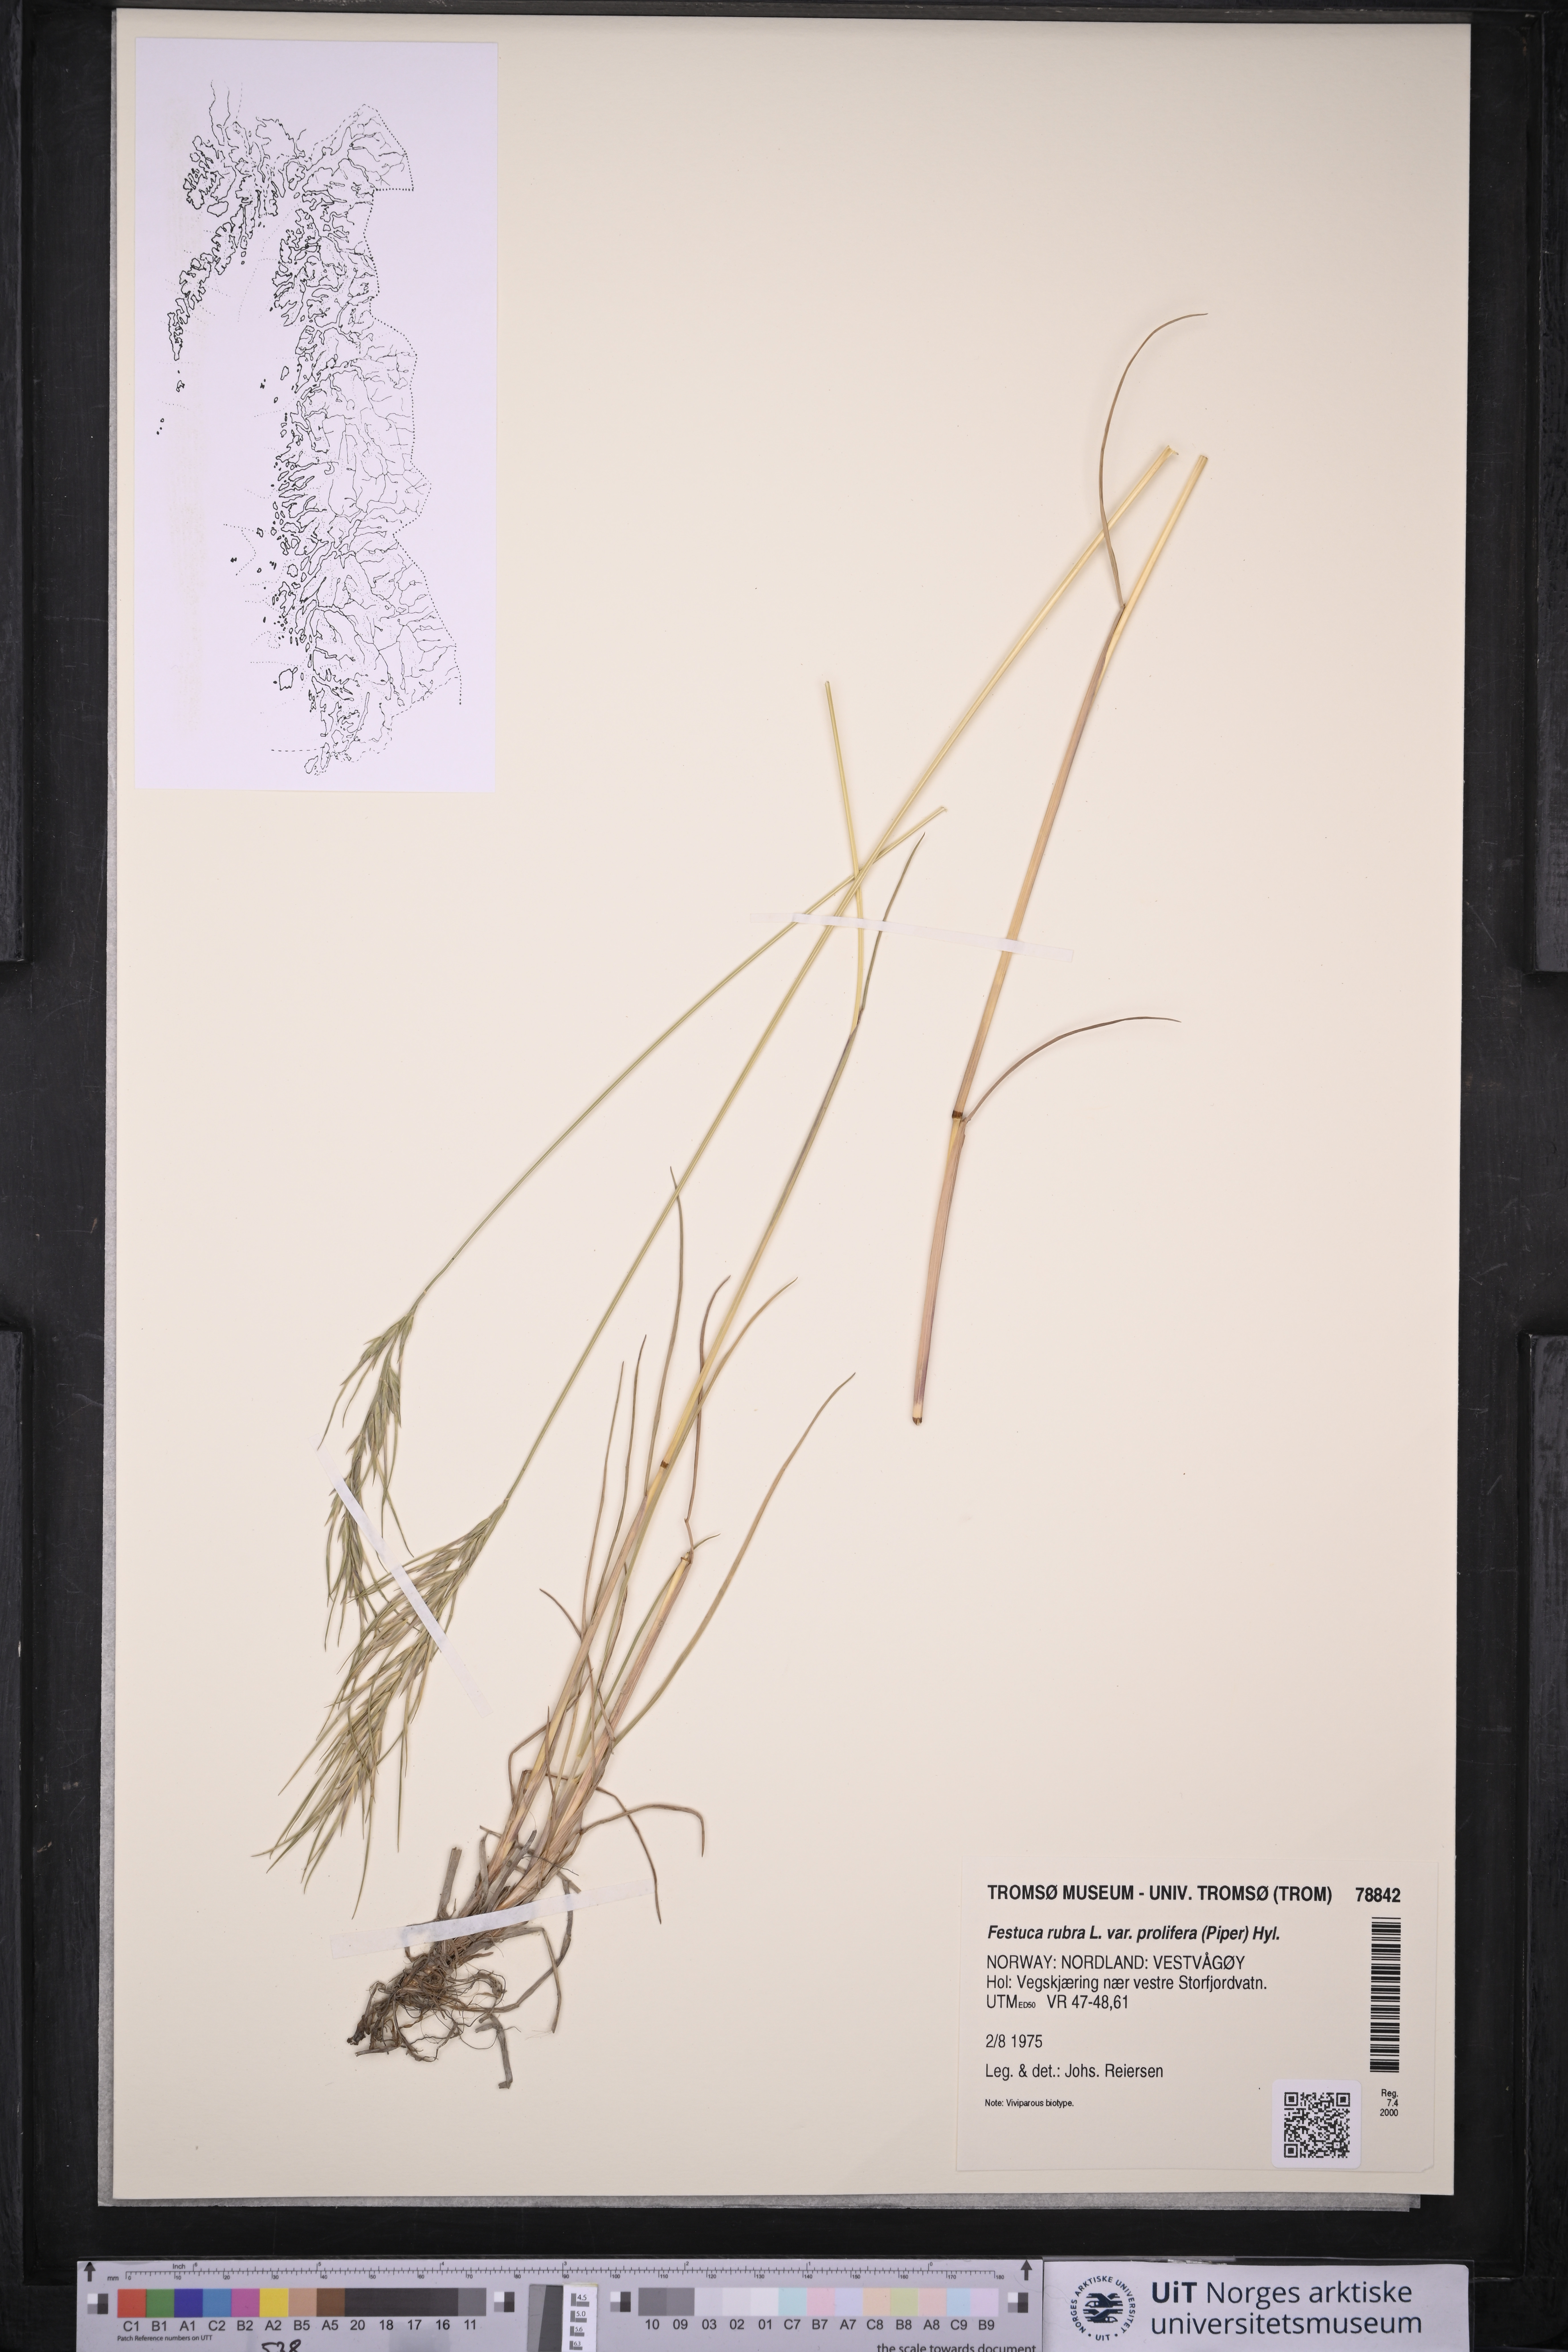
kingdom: Plantae
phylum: Tracheophyta
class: Liliopsida
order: Poales
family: Poaceae
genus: Festuca
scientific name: Festuca rubra
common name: Red fescue
